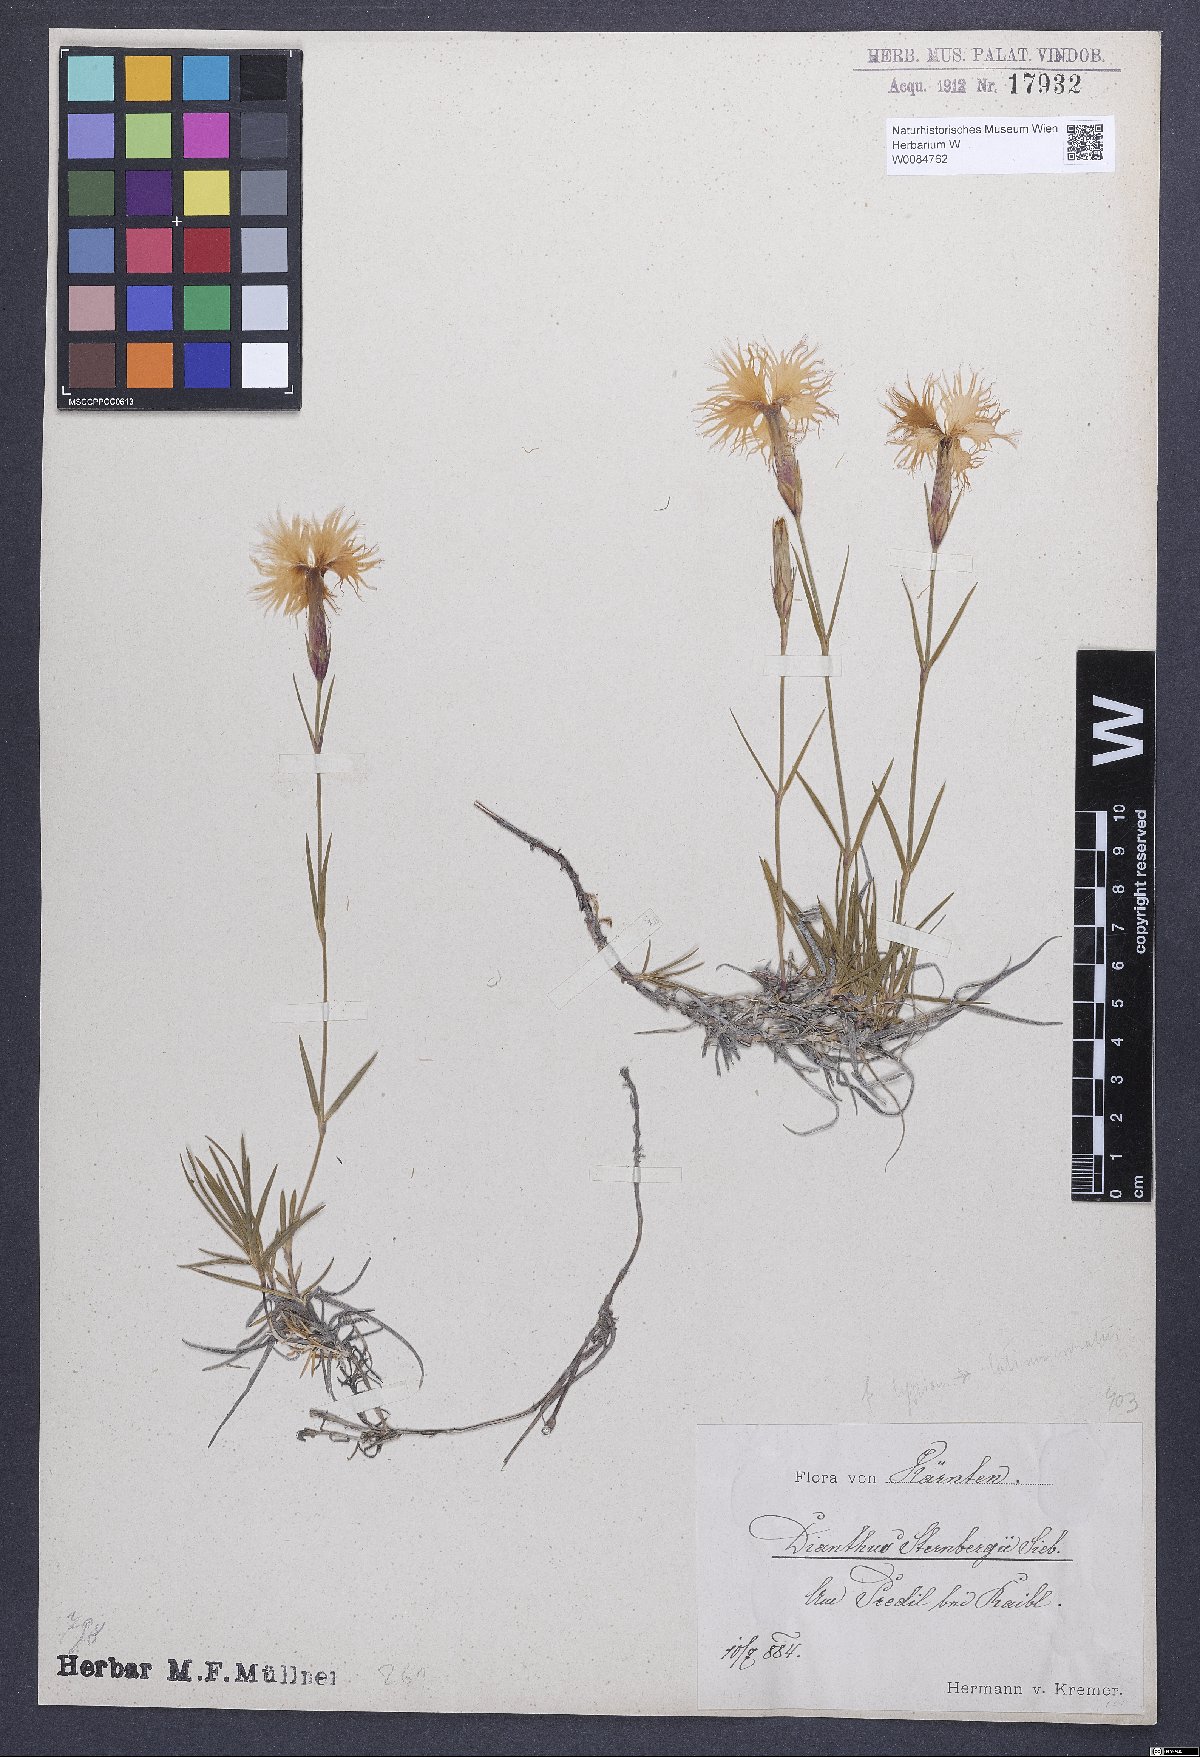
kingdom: Plantae
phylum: Tracheophyta
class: Magnoliopsida
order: Caryophyllales
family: Caryophyllaceae
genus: Dianthus
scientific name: Dianthus monspessulanus
